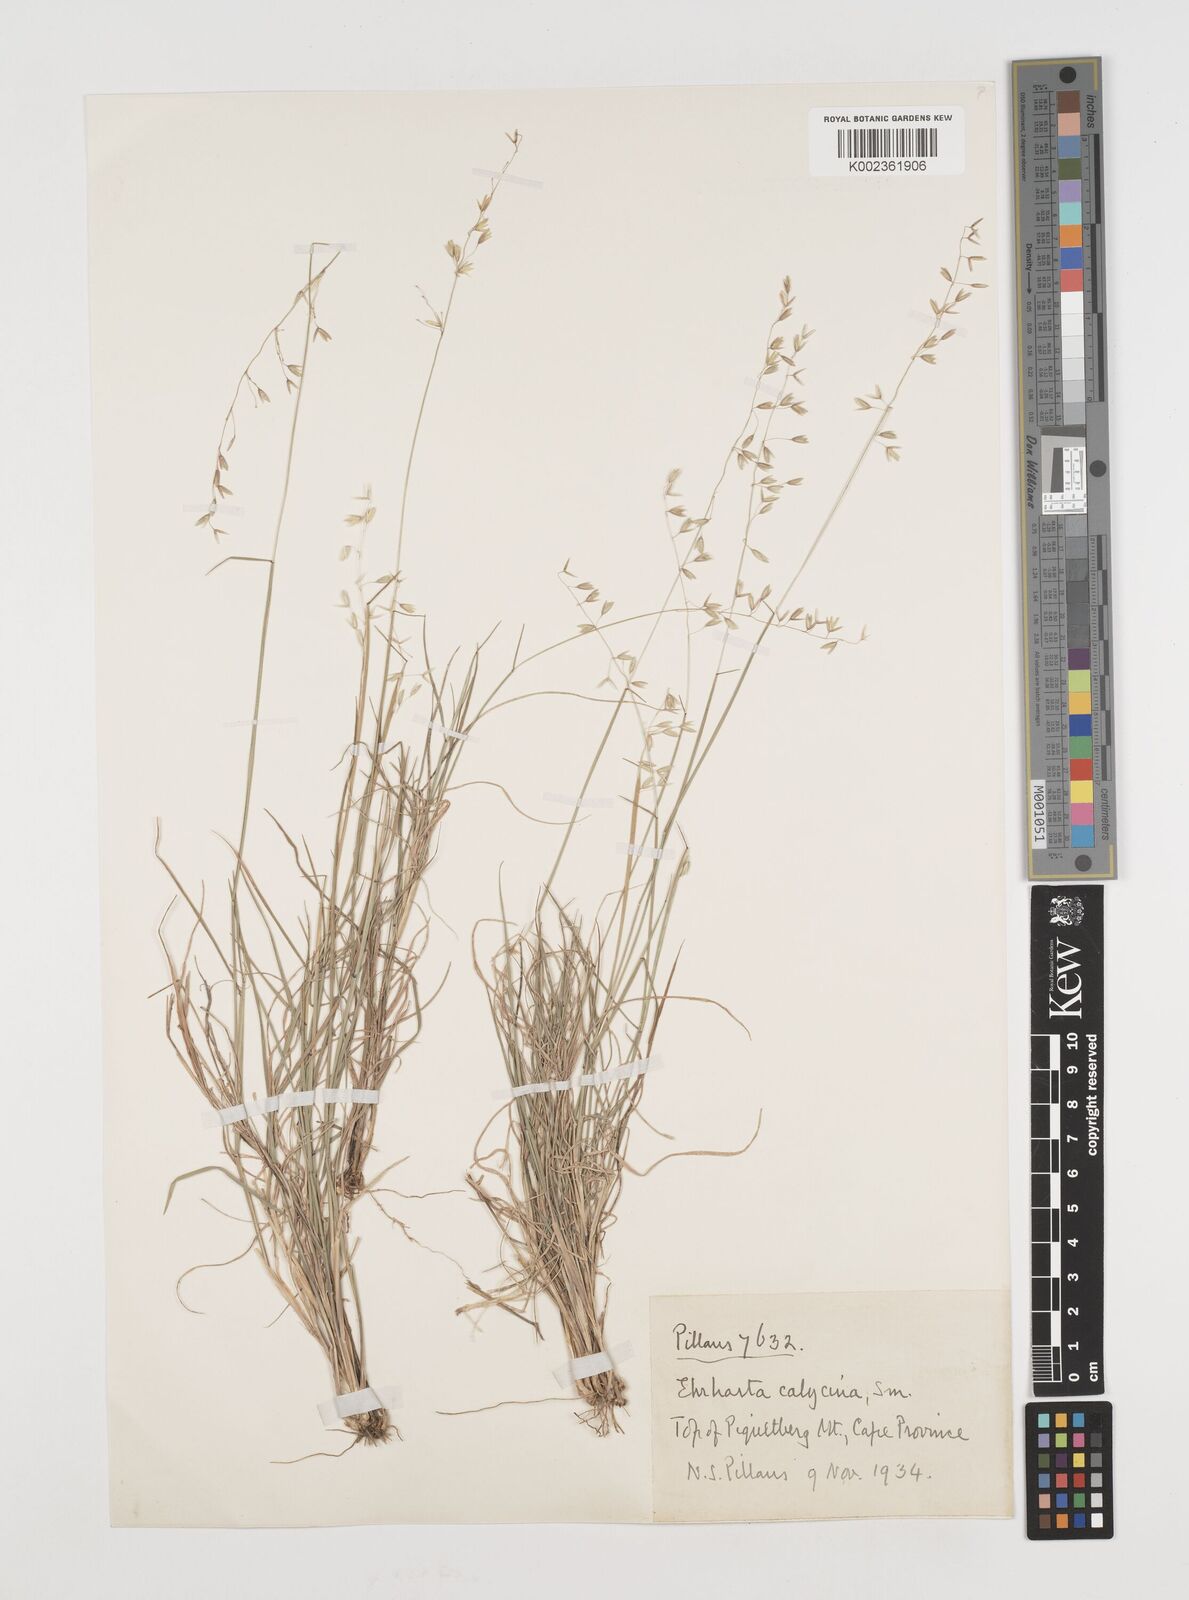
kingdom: Plantae
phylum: Tracheophyta
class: Liliopsida
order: Poales
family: Poaceae
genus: Ehrharta
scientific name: Ehrharta calycina
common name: Perennial veldtgrass
